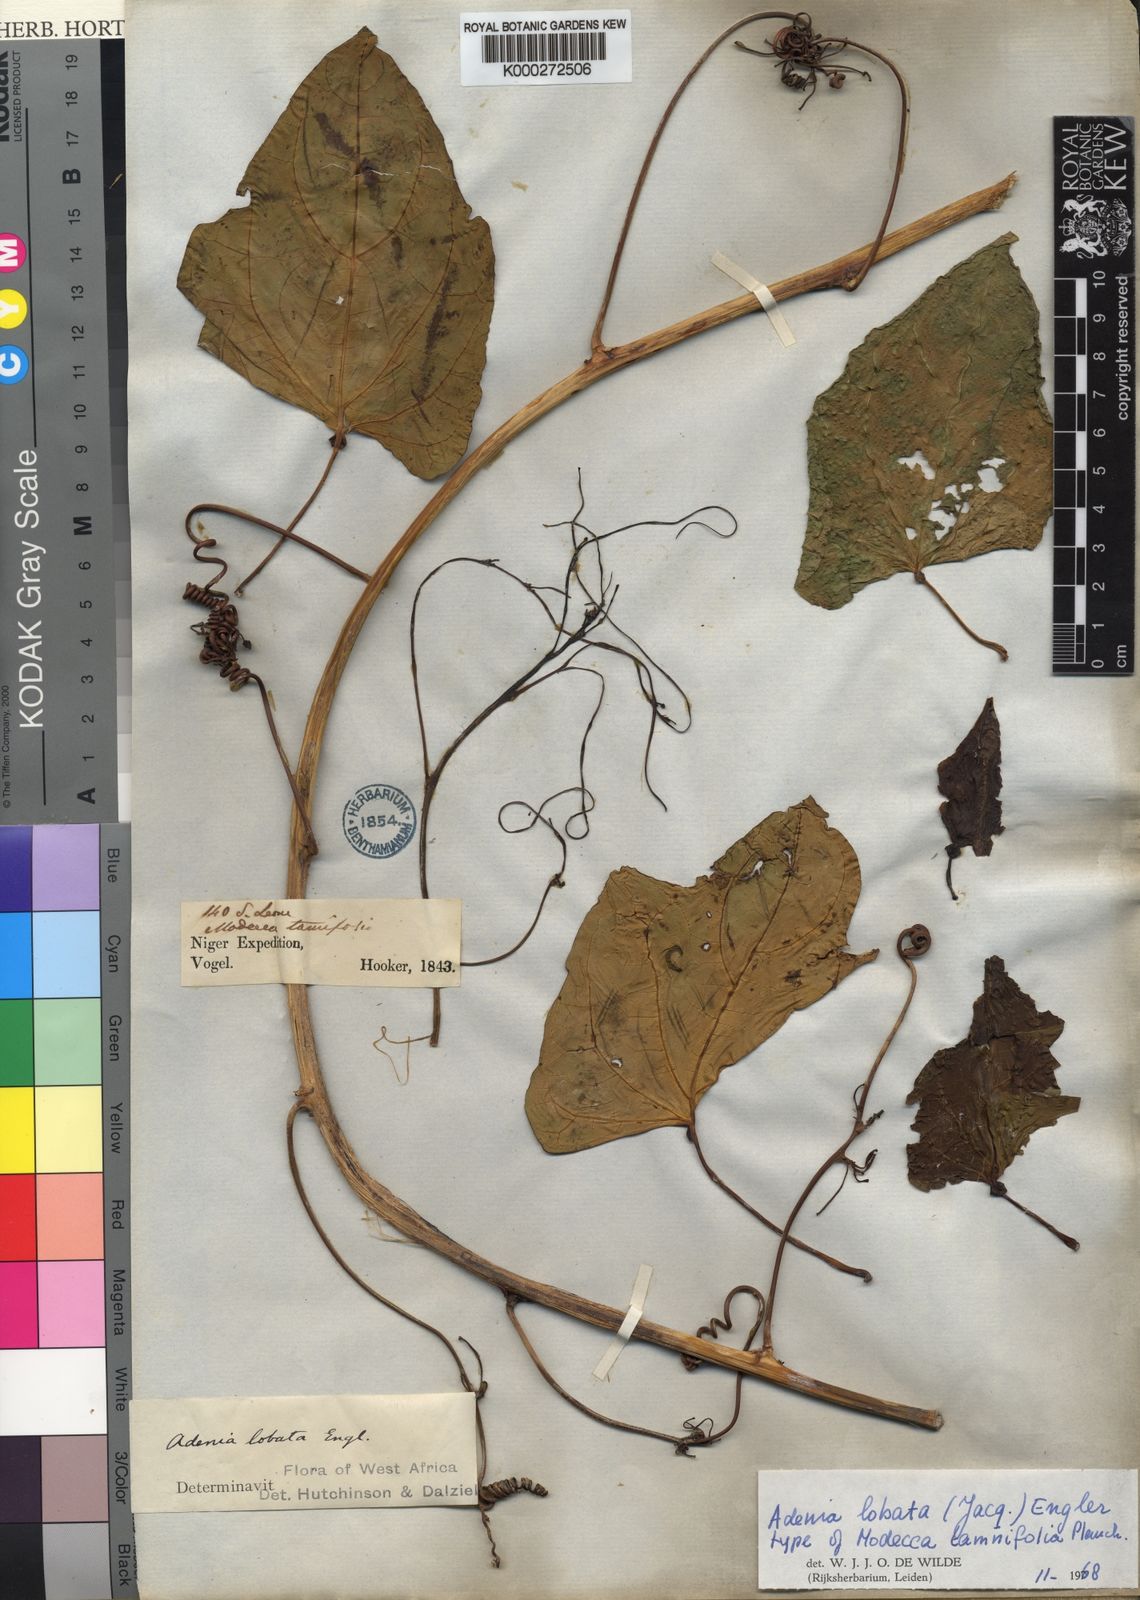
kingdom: Plantae
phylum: Tracheophyta
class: Magnoliopsida
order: Malpighiales
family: Passifloraceae
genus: Adenia
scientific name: Adenia lobata
